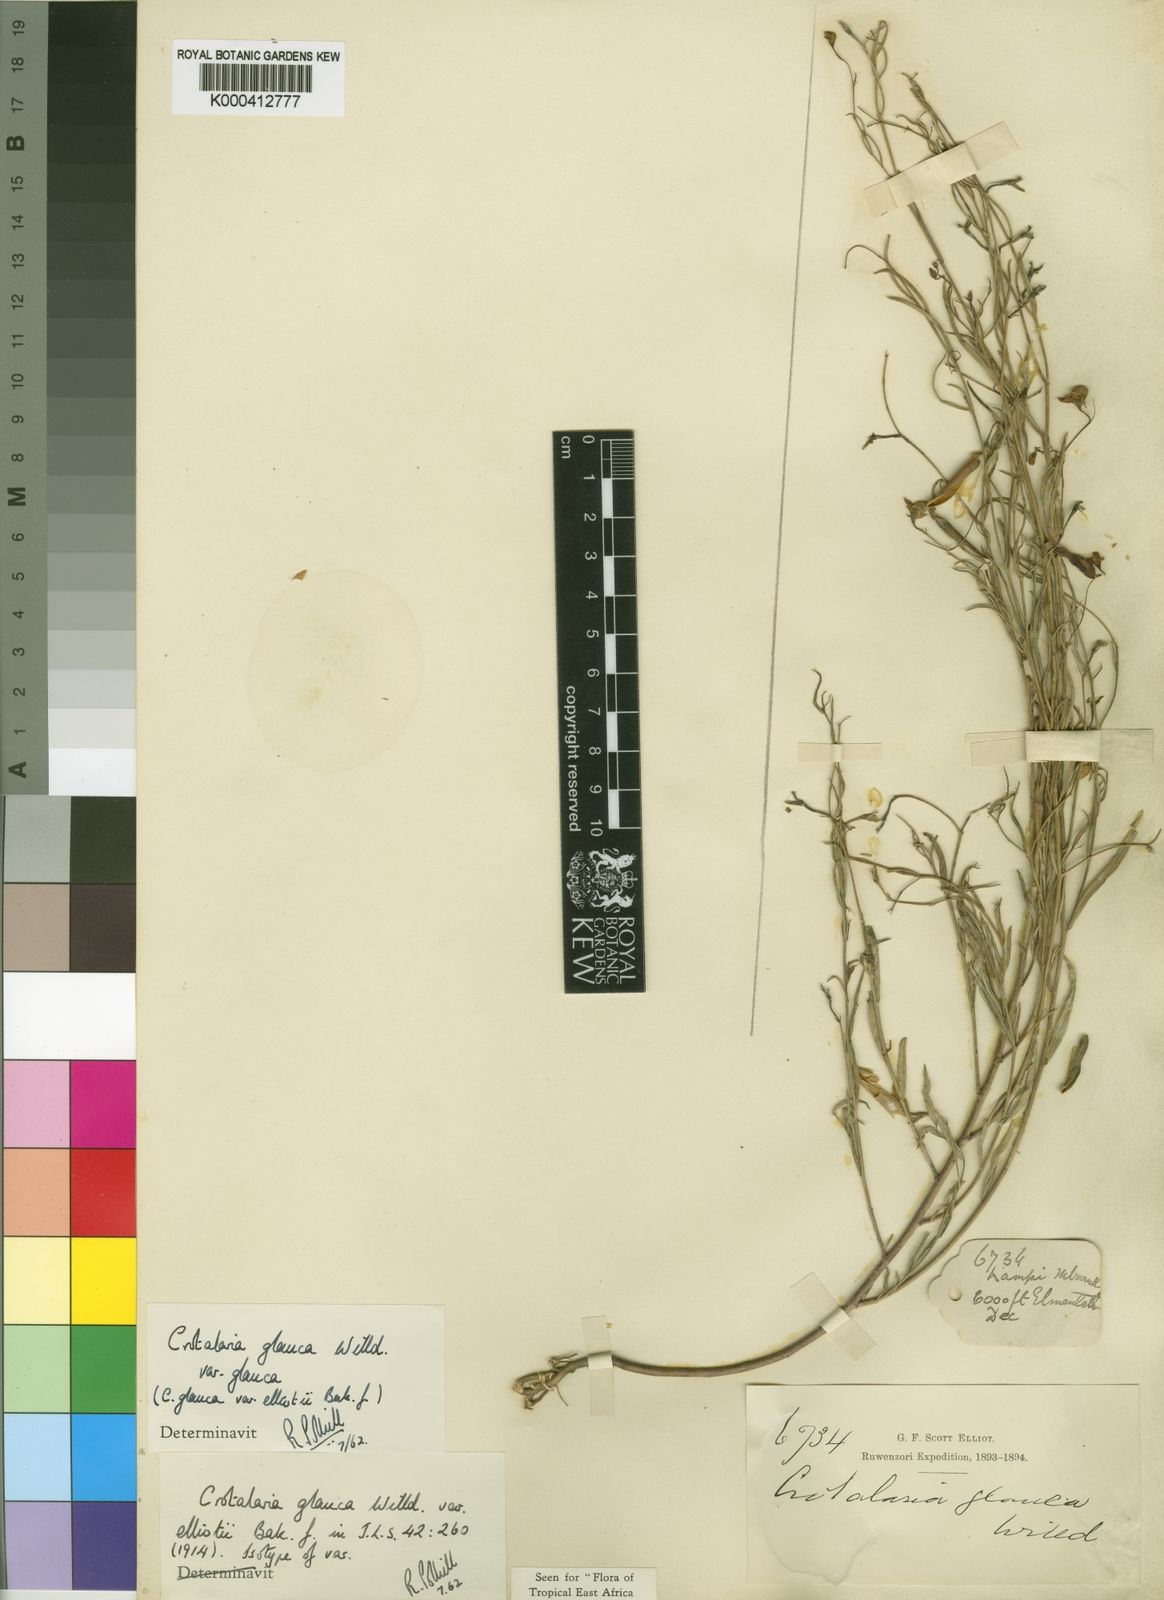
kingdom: Plantae
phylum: Tracheophyta
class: Magnoliopsida
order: Fabales
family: Fabaceae
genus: Crotalaria
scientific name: Crotalaria glauca
